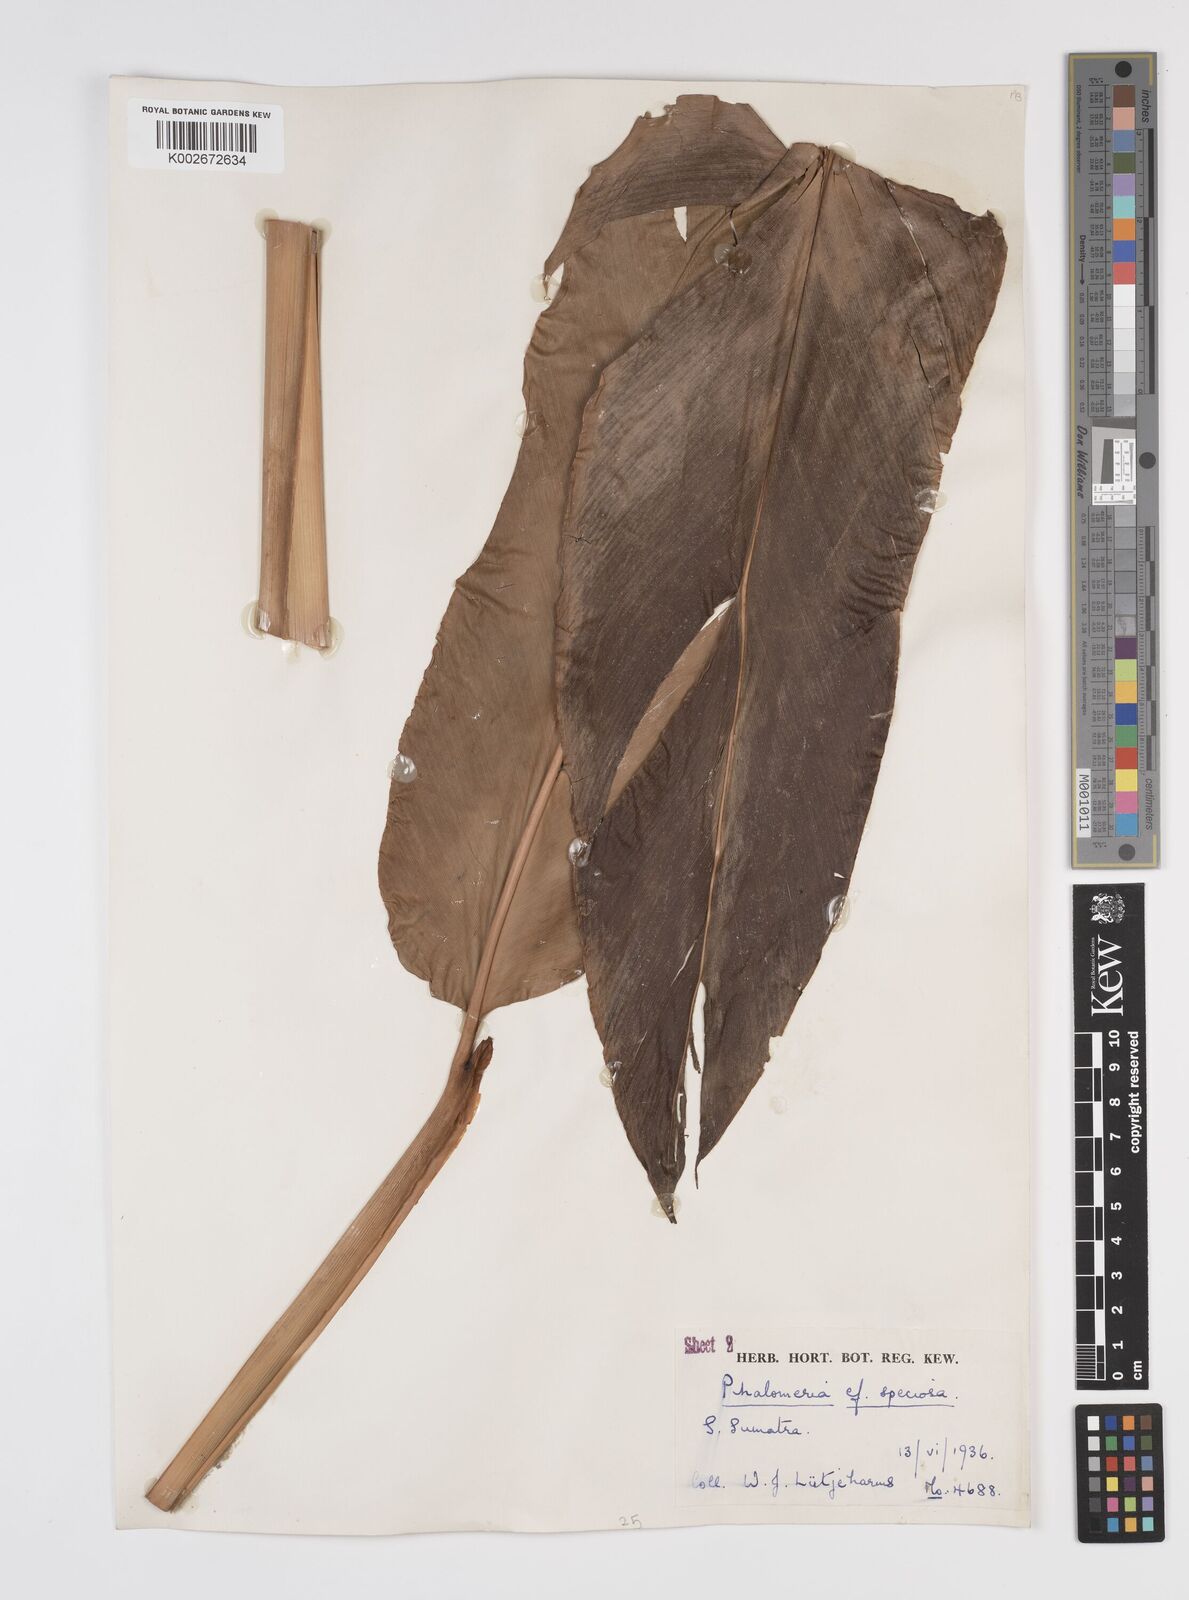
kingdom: Plantae
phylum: Tracheophyta
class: Liliopsida
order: Zingiberales
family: Zingiberaceae
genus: Etlingera
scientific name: Etlingera elatior
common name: Philippine waxflower
